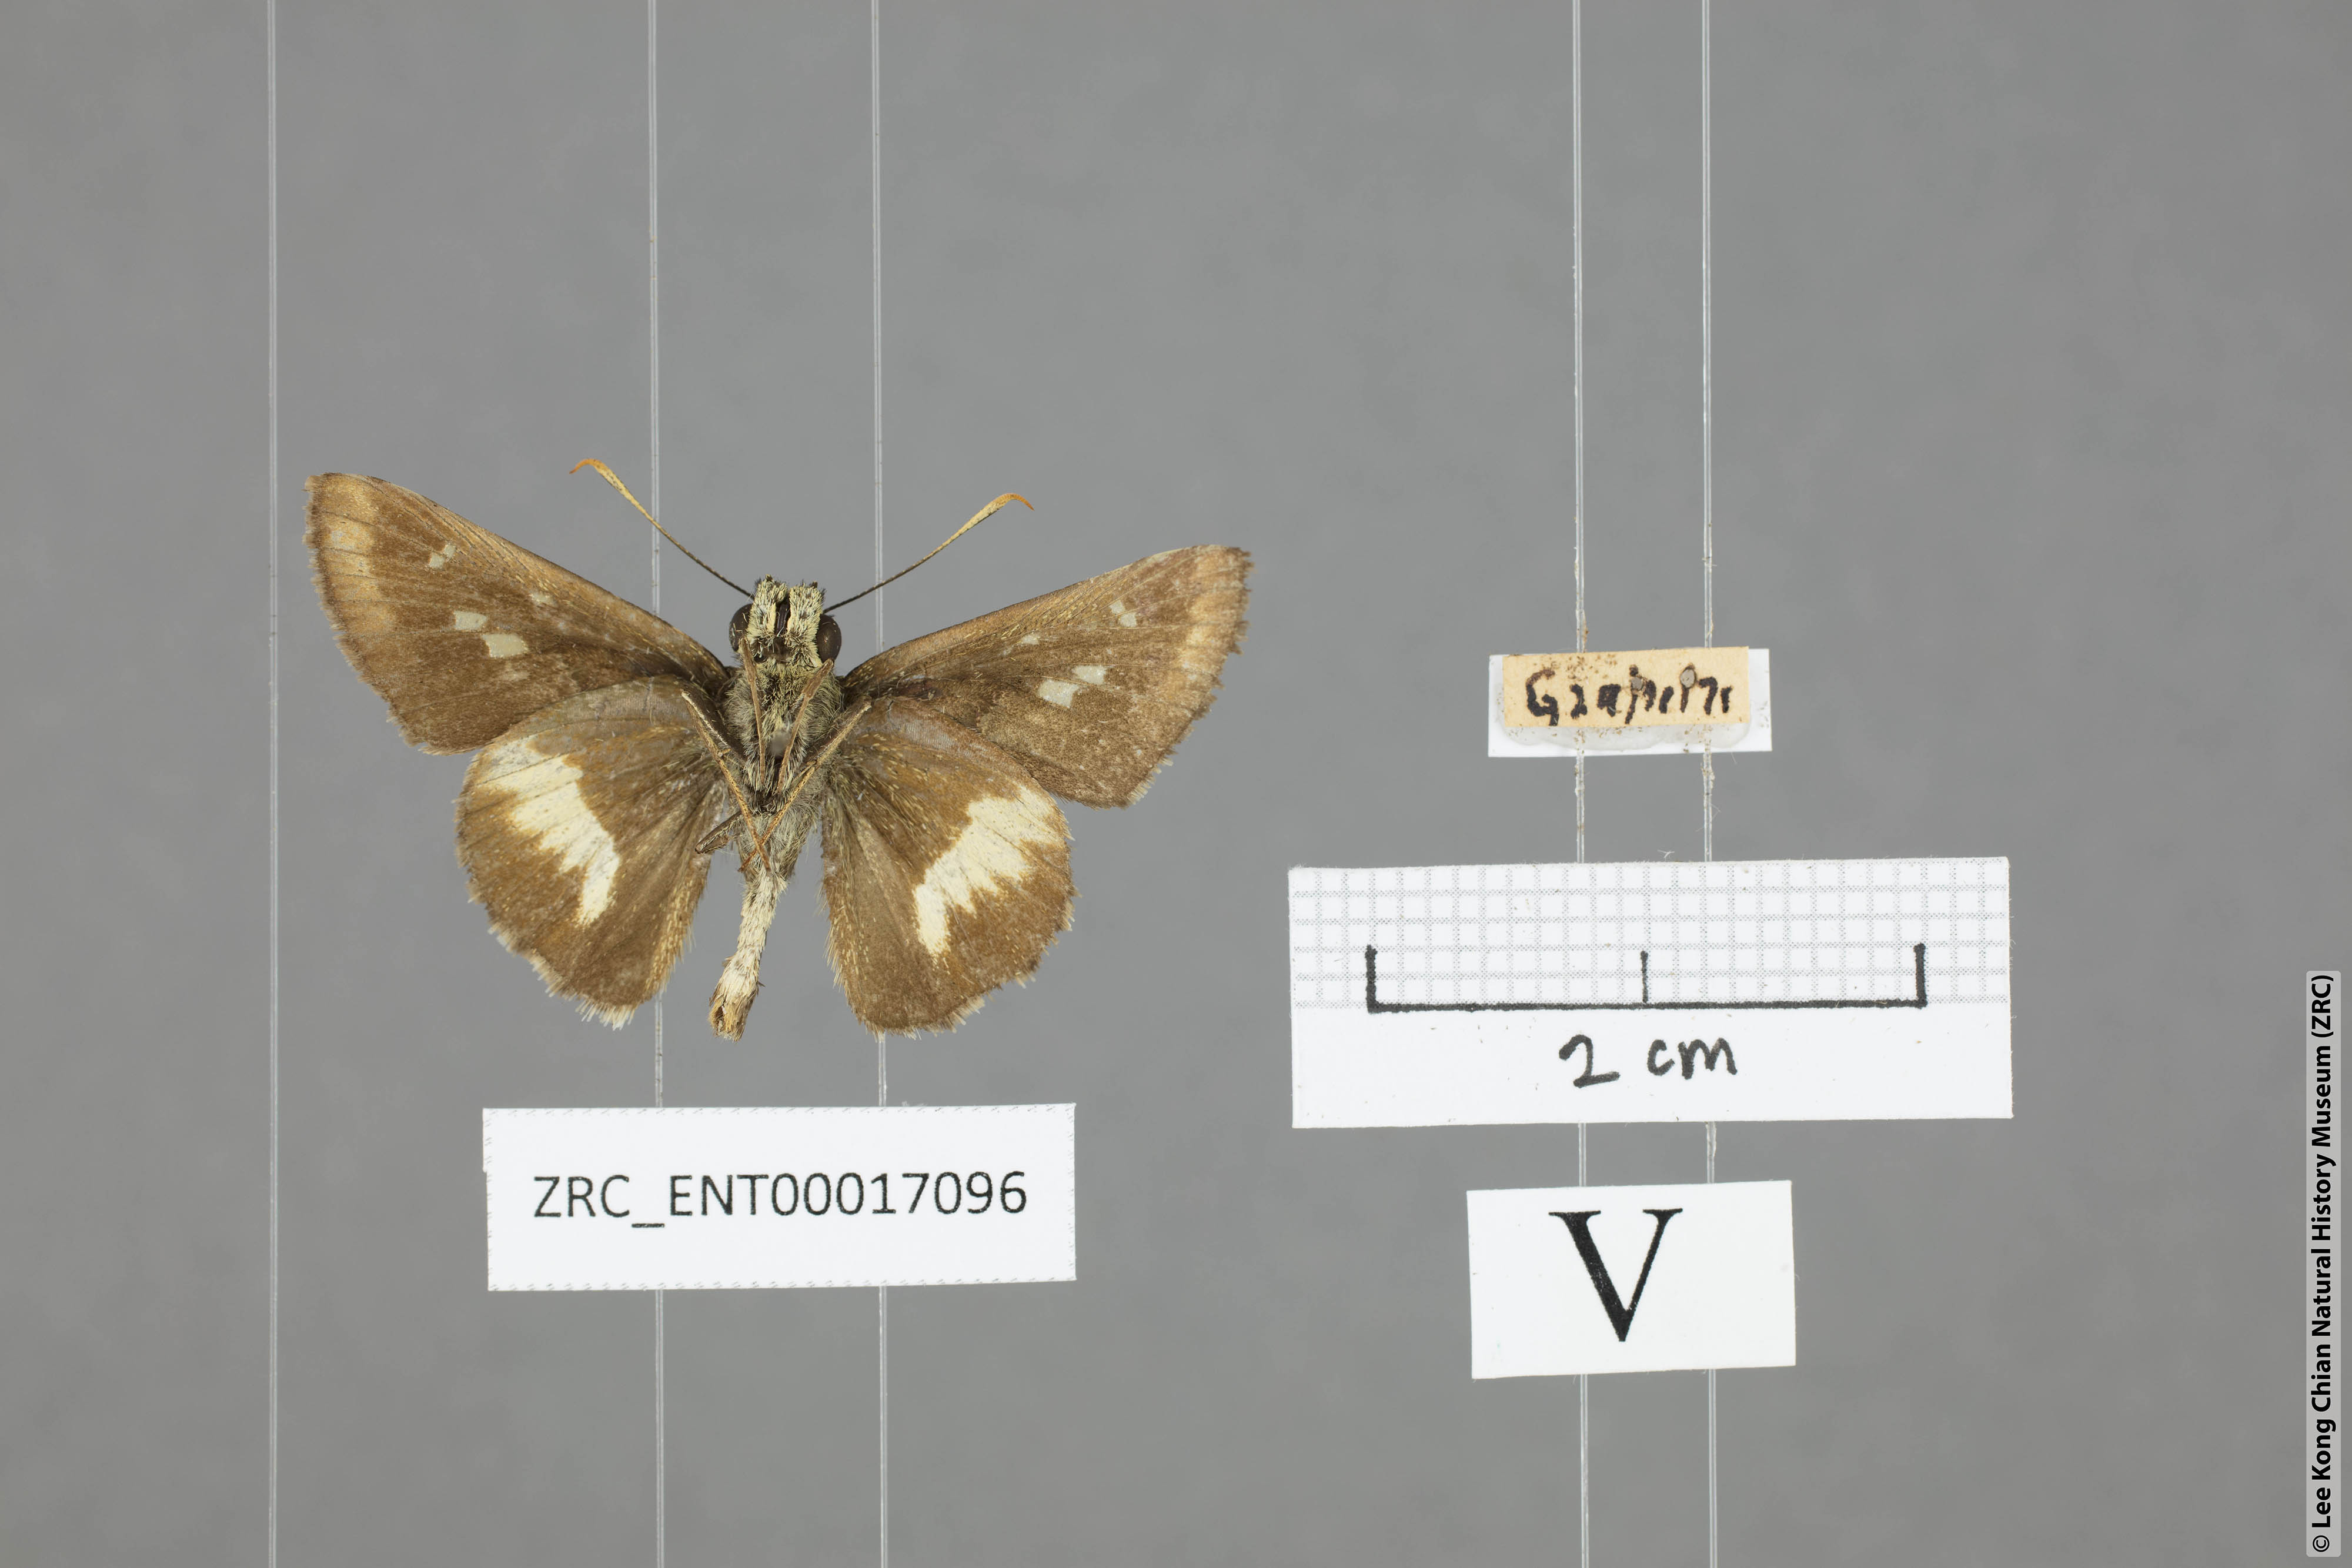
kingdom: Animalia
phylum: Arthropoda
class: Insecta
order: Lepidoptera
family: Hesperiidae
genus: Halpe
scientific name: Halpe zema
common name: Dark banded ace
